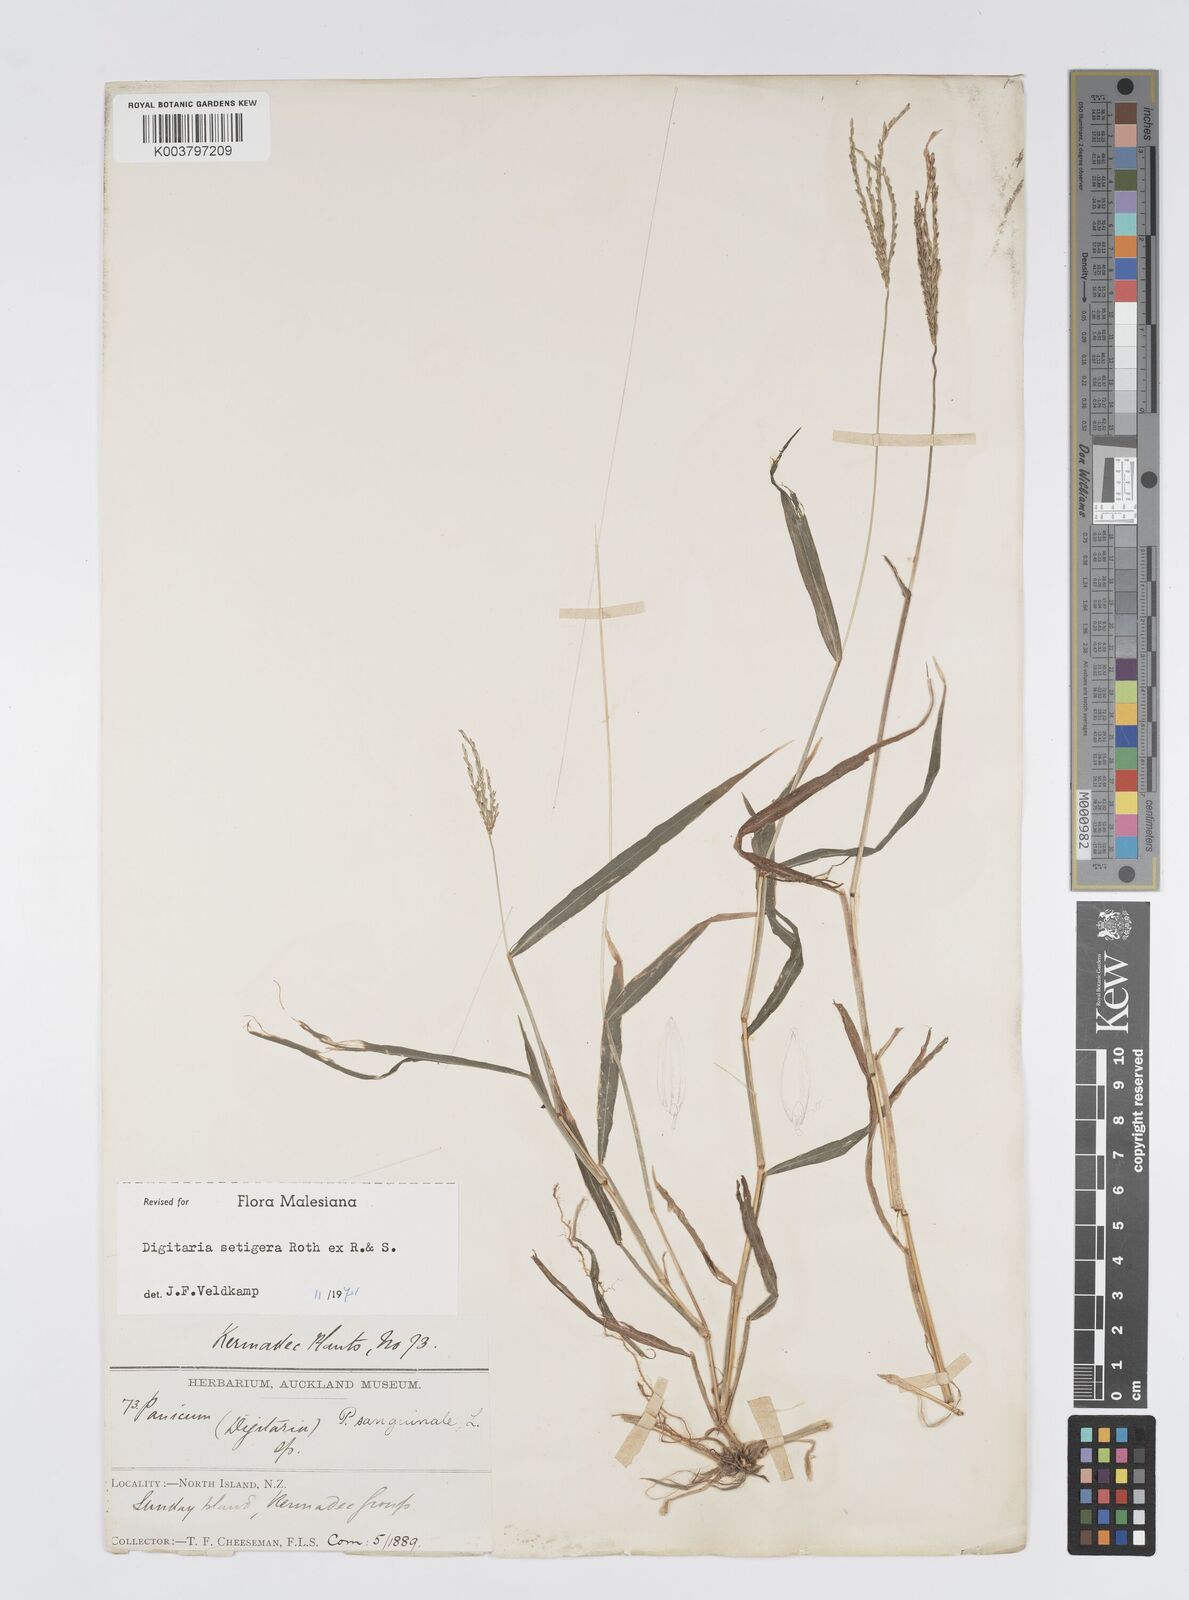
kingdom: Plantae
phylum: Tracheophyta
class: Liliopsida
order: Poales
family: Poaceae
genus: Digitaria
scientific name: Digitaria setigera
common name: East indian crabgrass
